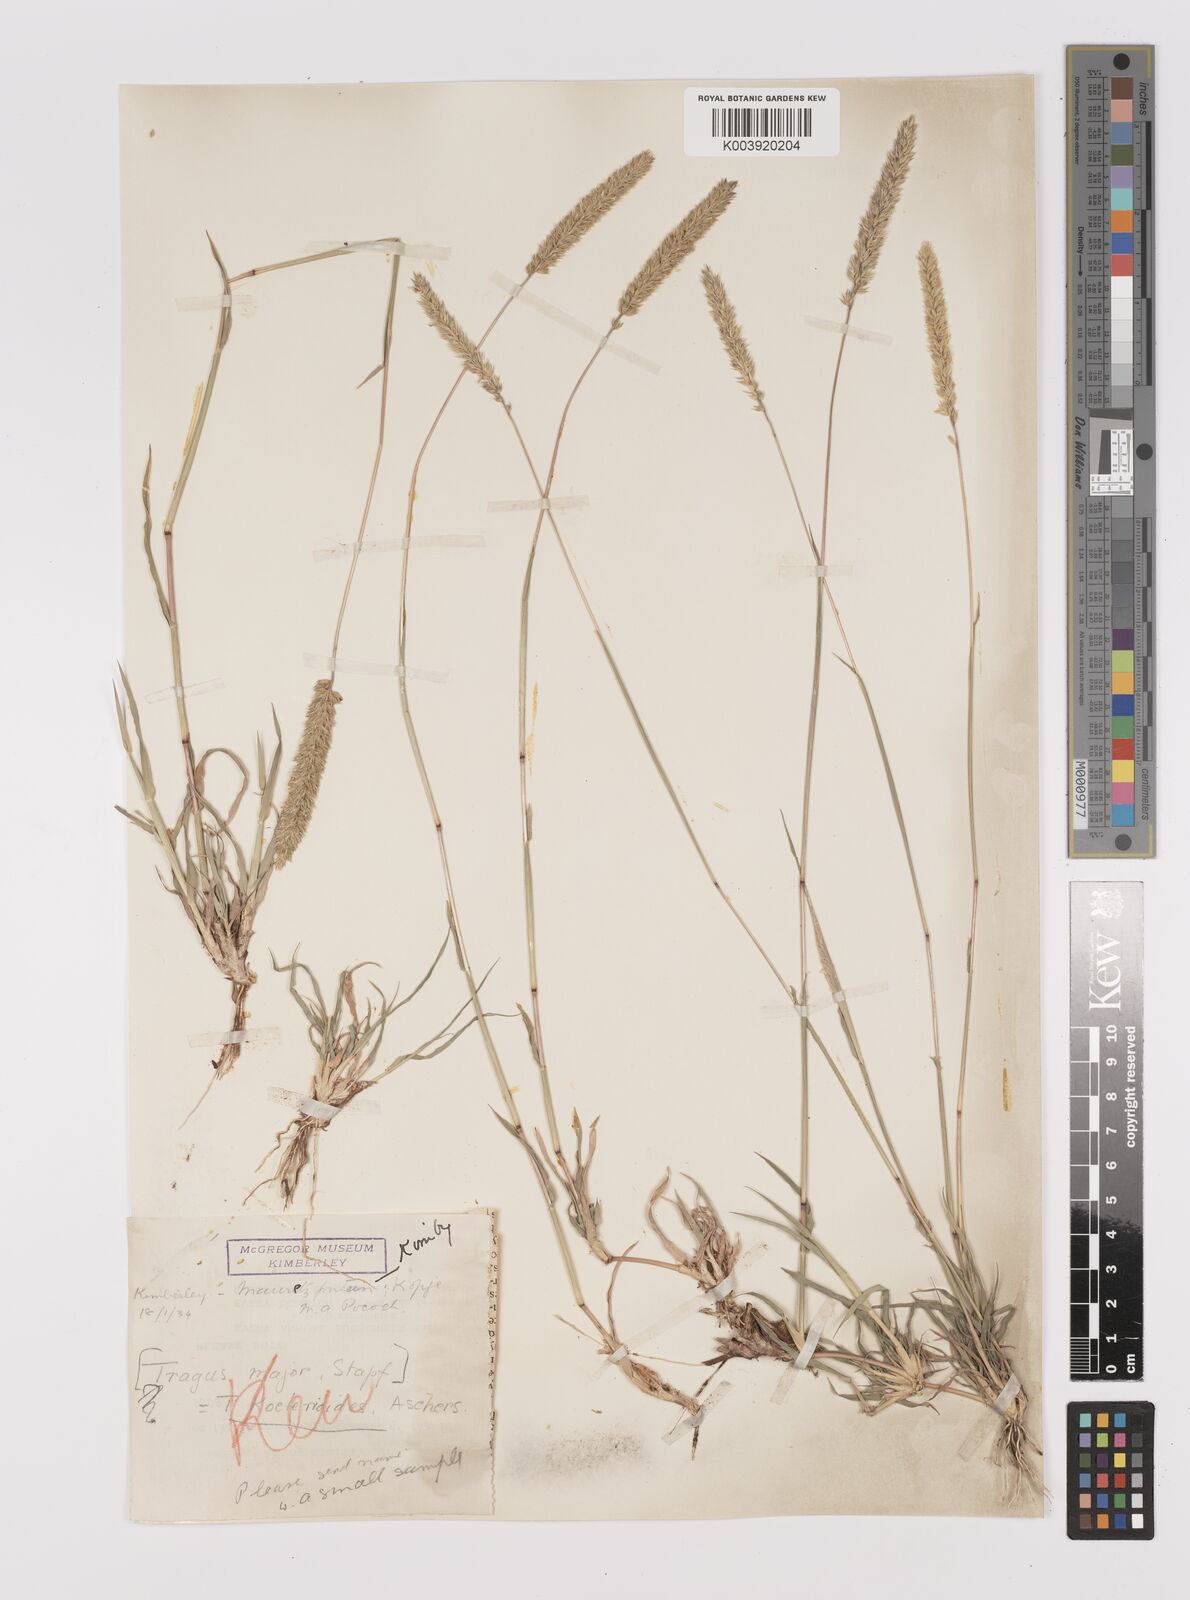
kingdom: Plantae
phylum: Tracheophyta
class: Liliopsida
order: Poales
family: Poaceae
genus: Tragus
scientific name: Tragus koelerioides
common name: Creeping carrot-seed grass
